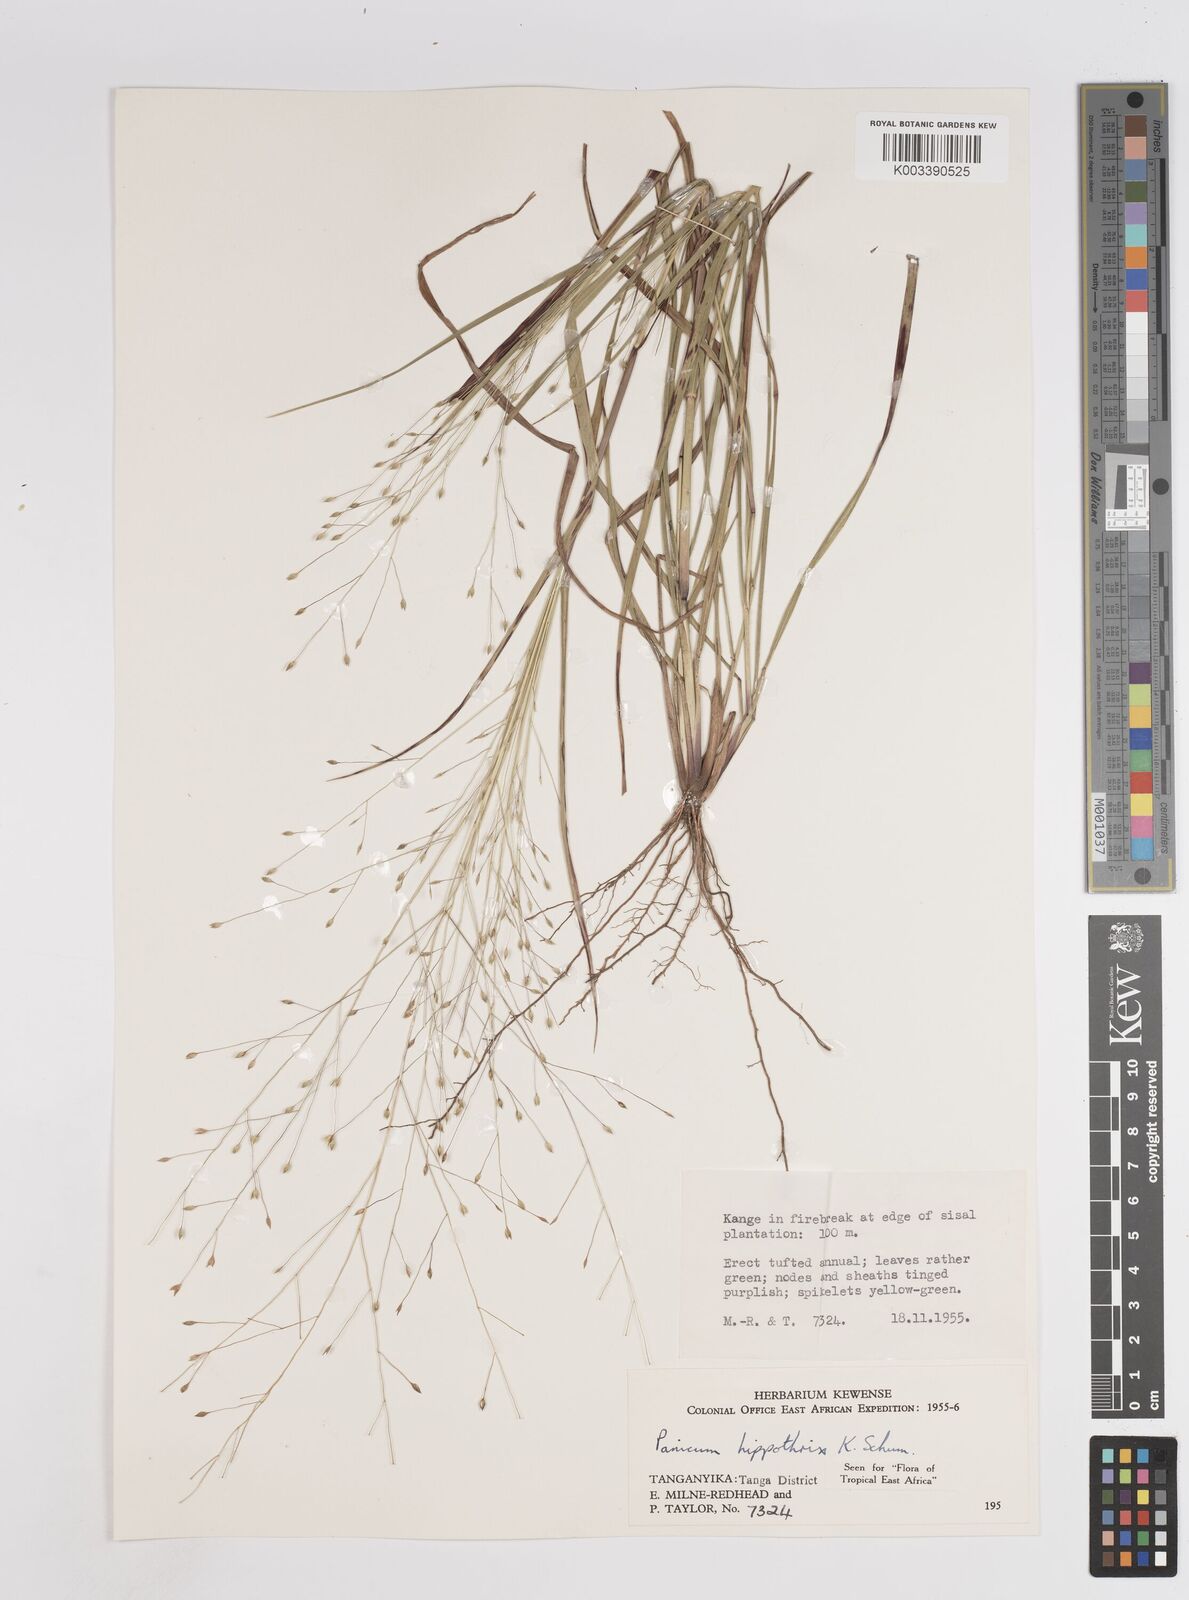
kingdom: Plantae
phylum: Tracheophyta
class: Liliopsida
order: Poales
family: Poaceae
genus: Panicum
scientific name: Panicum hippothrix
